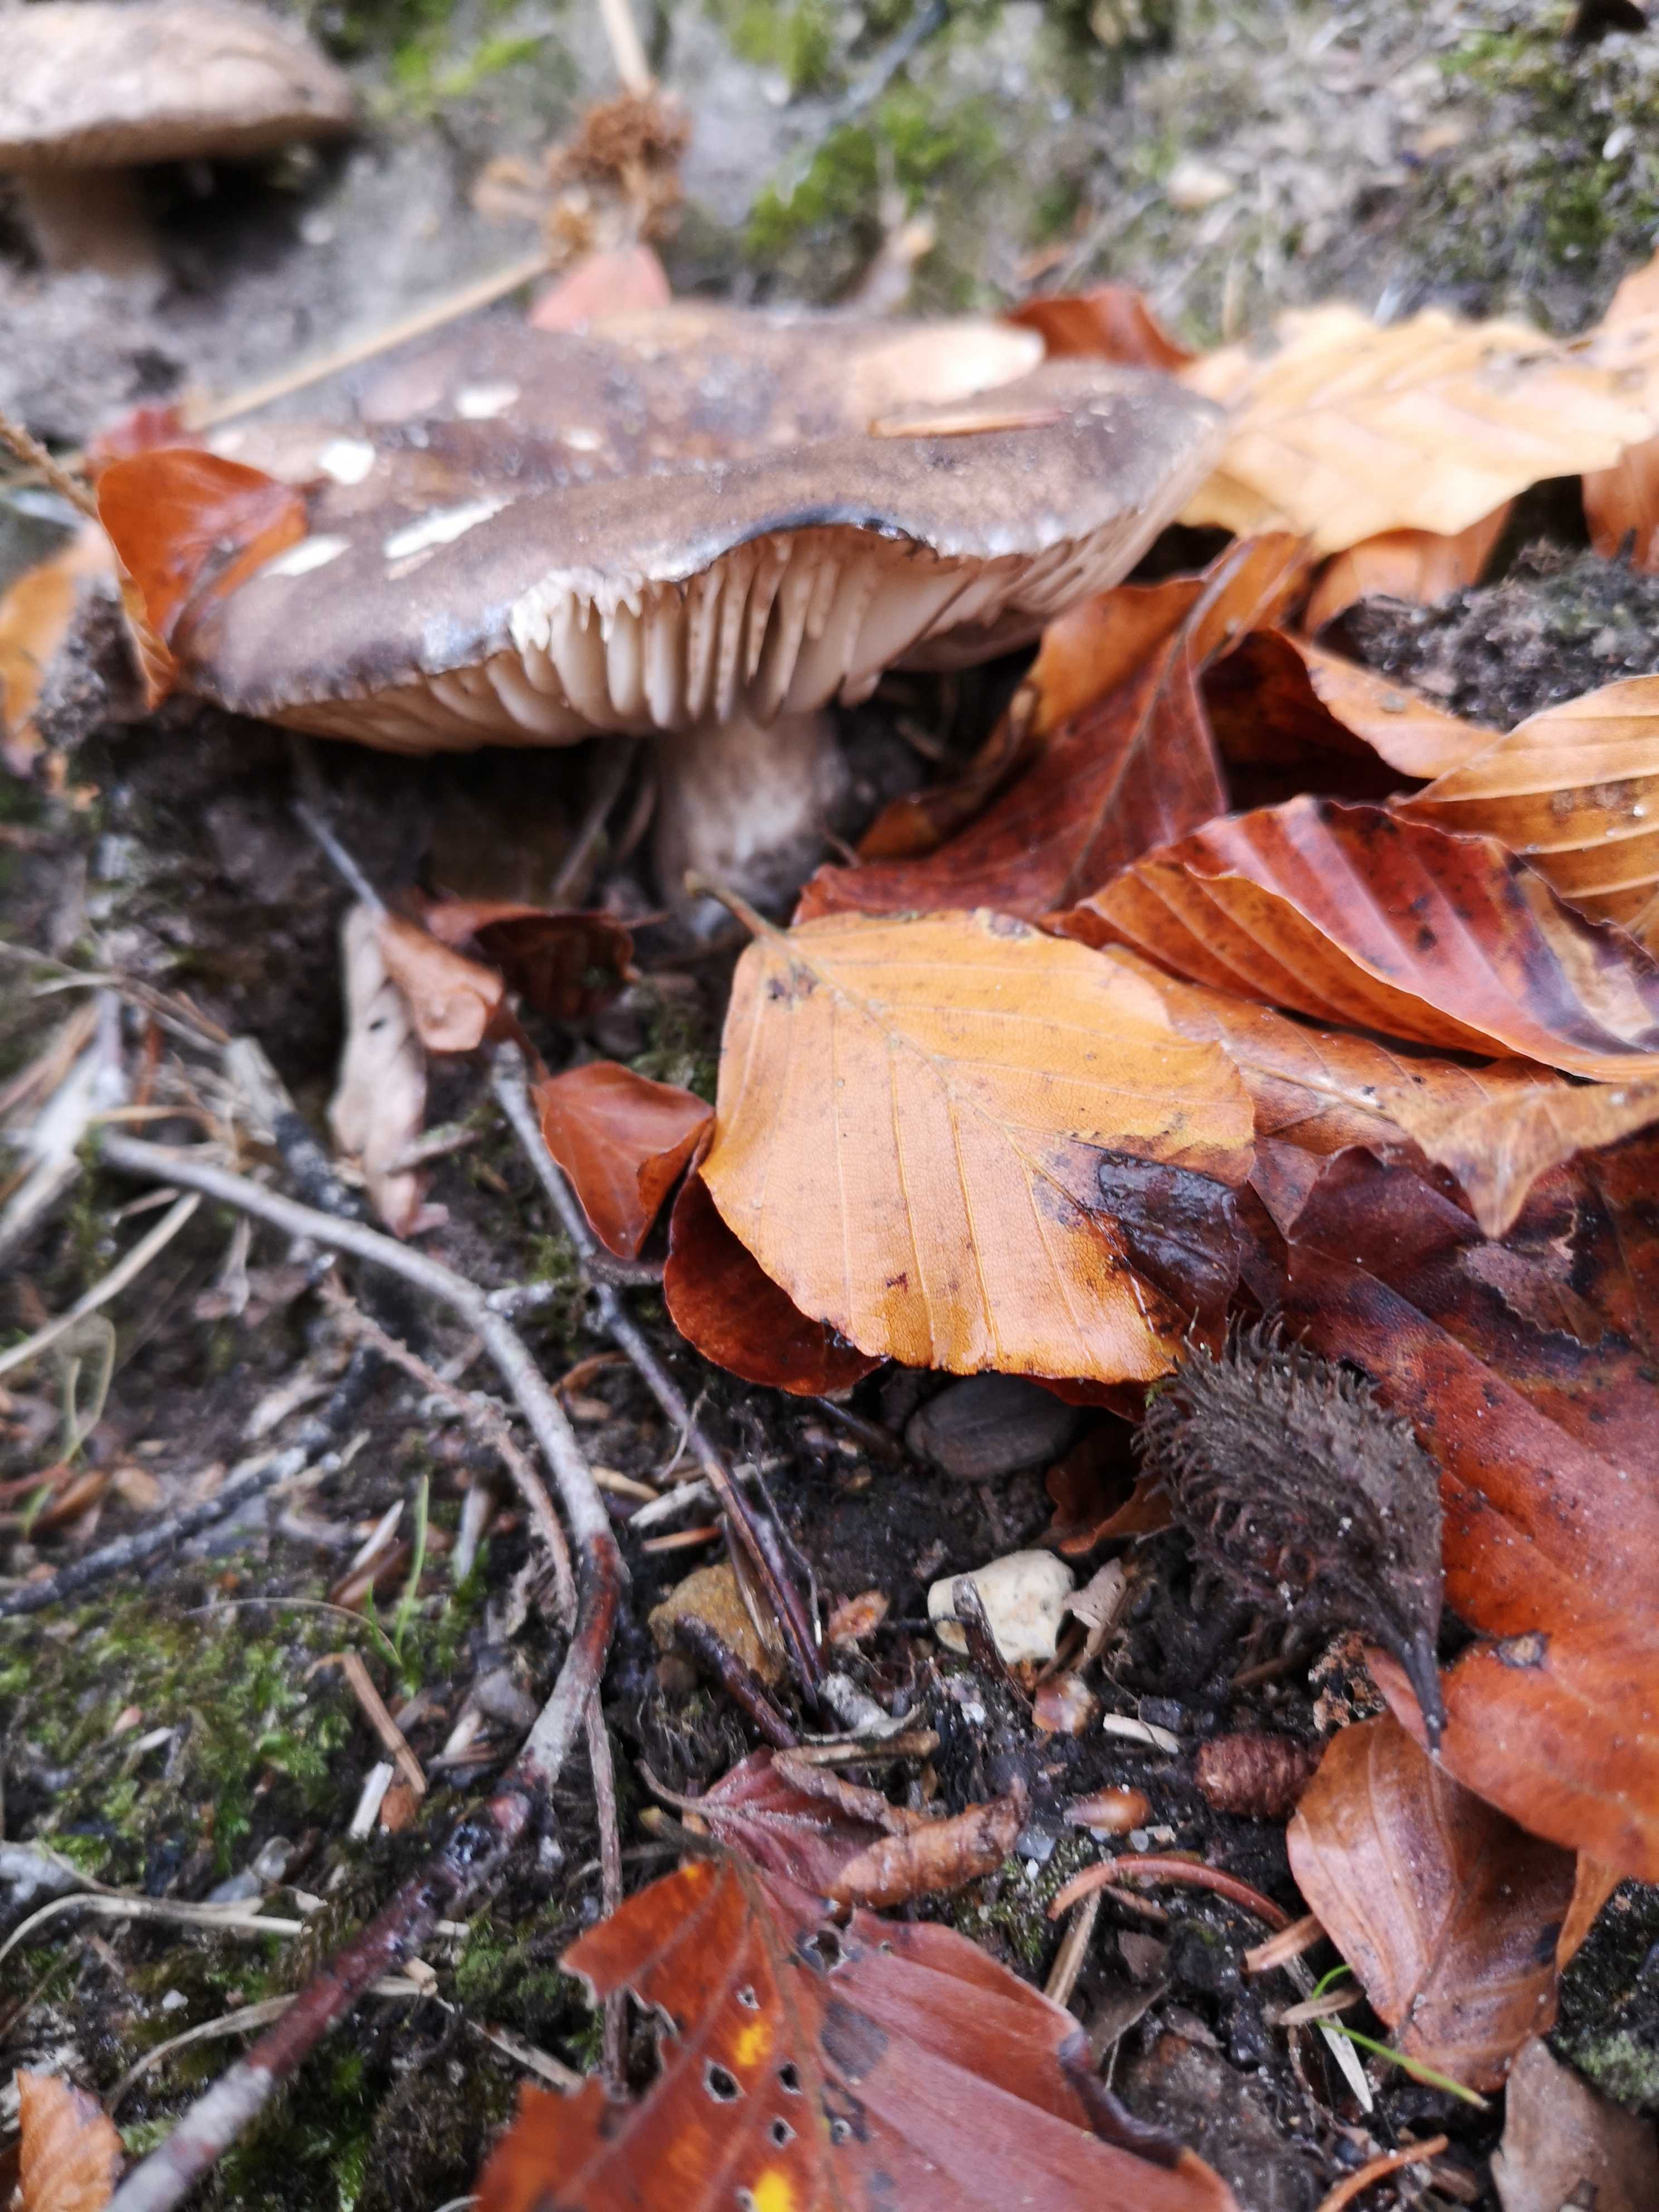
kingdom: Fungi
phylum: Basidiomycota
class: Agaricomycetes
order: Russulales
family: Russulaceae
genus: Russula
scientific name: Russula adusta
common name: sværtende skørhat
